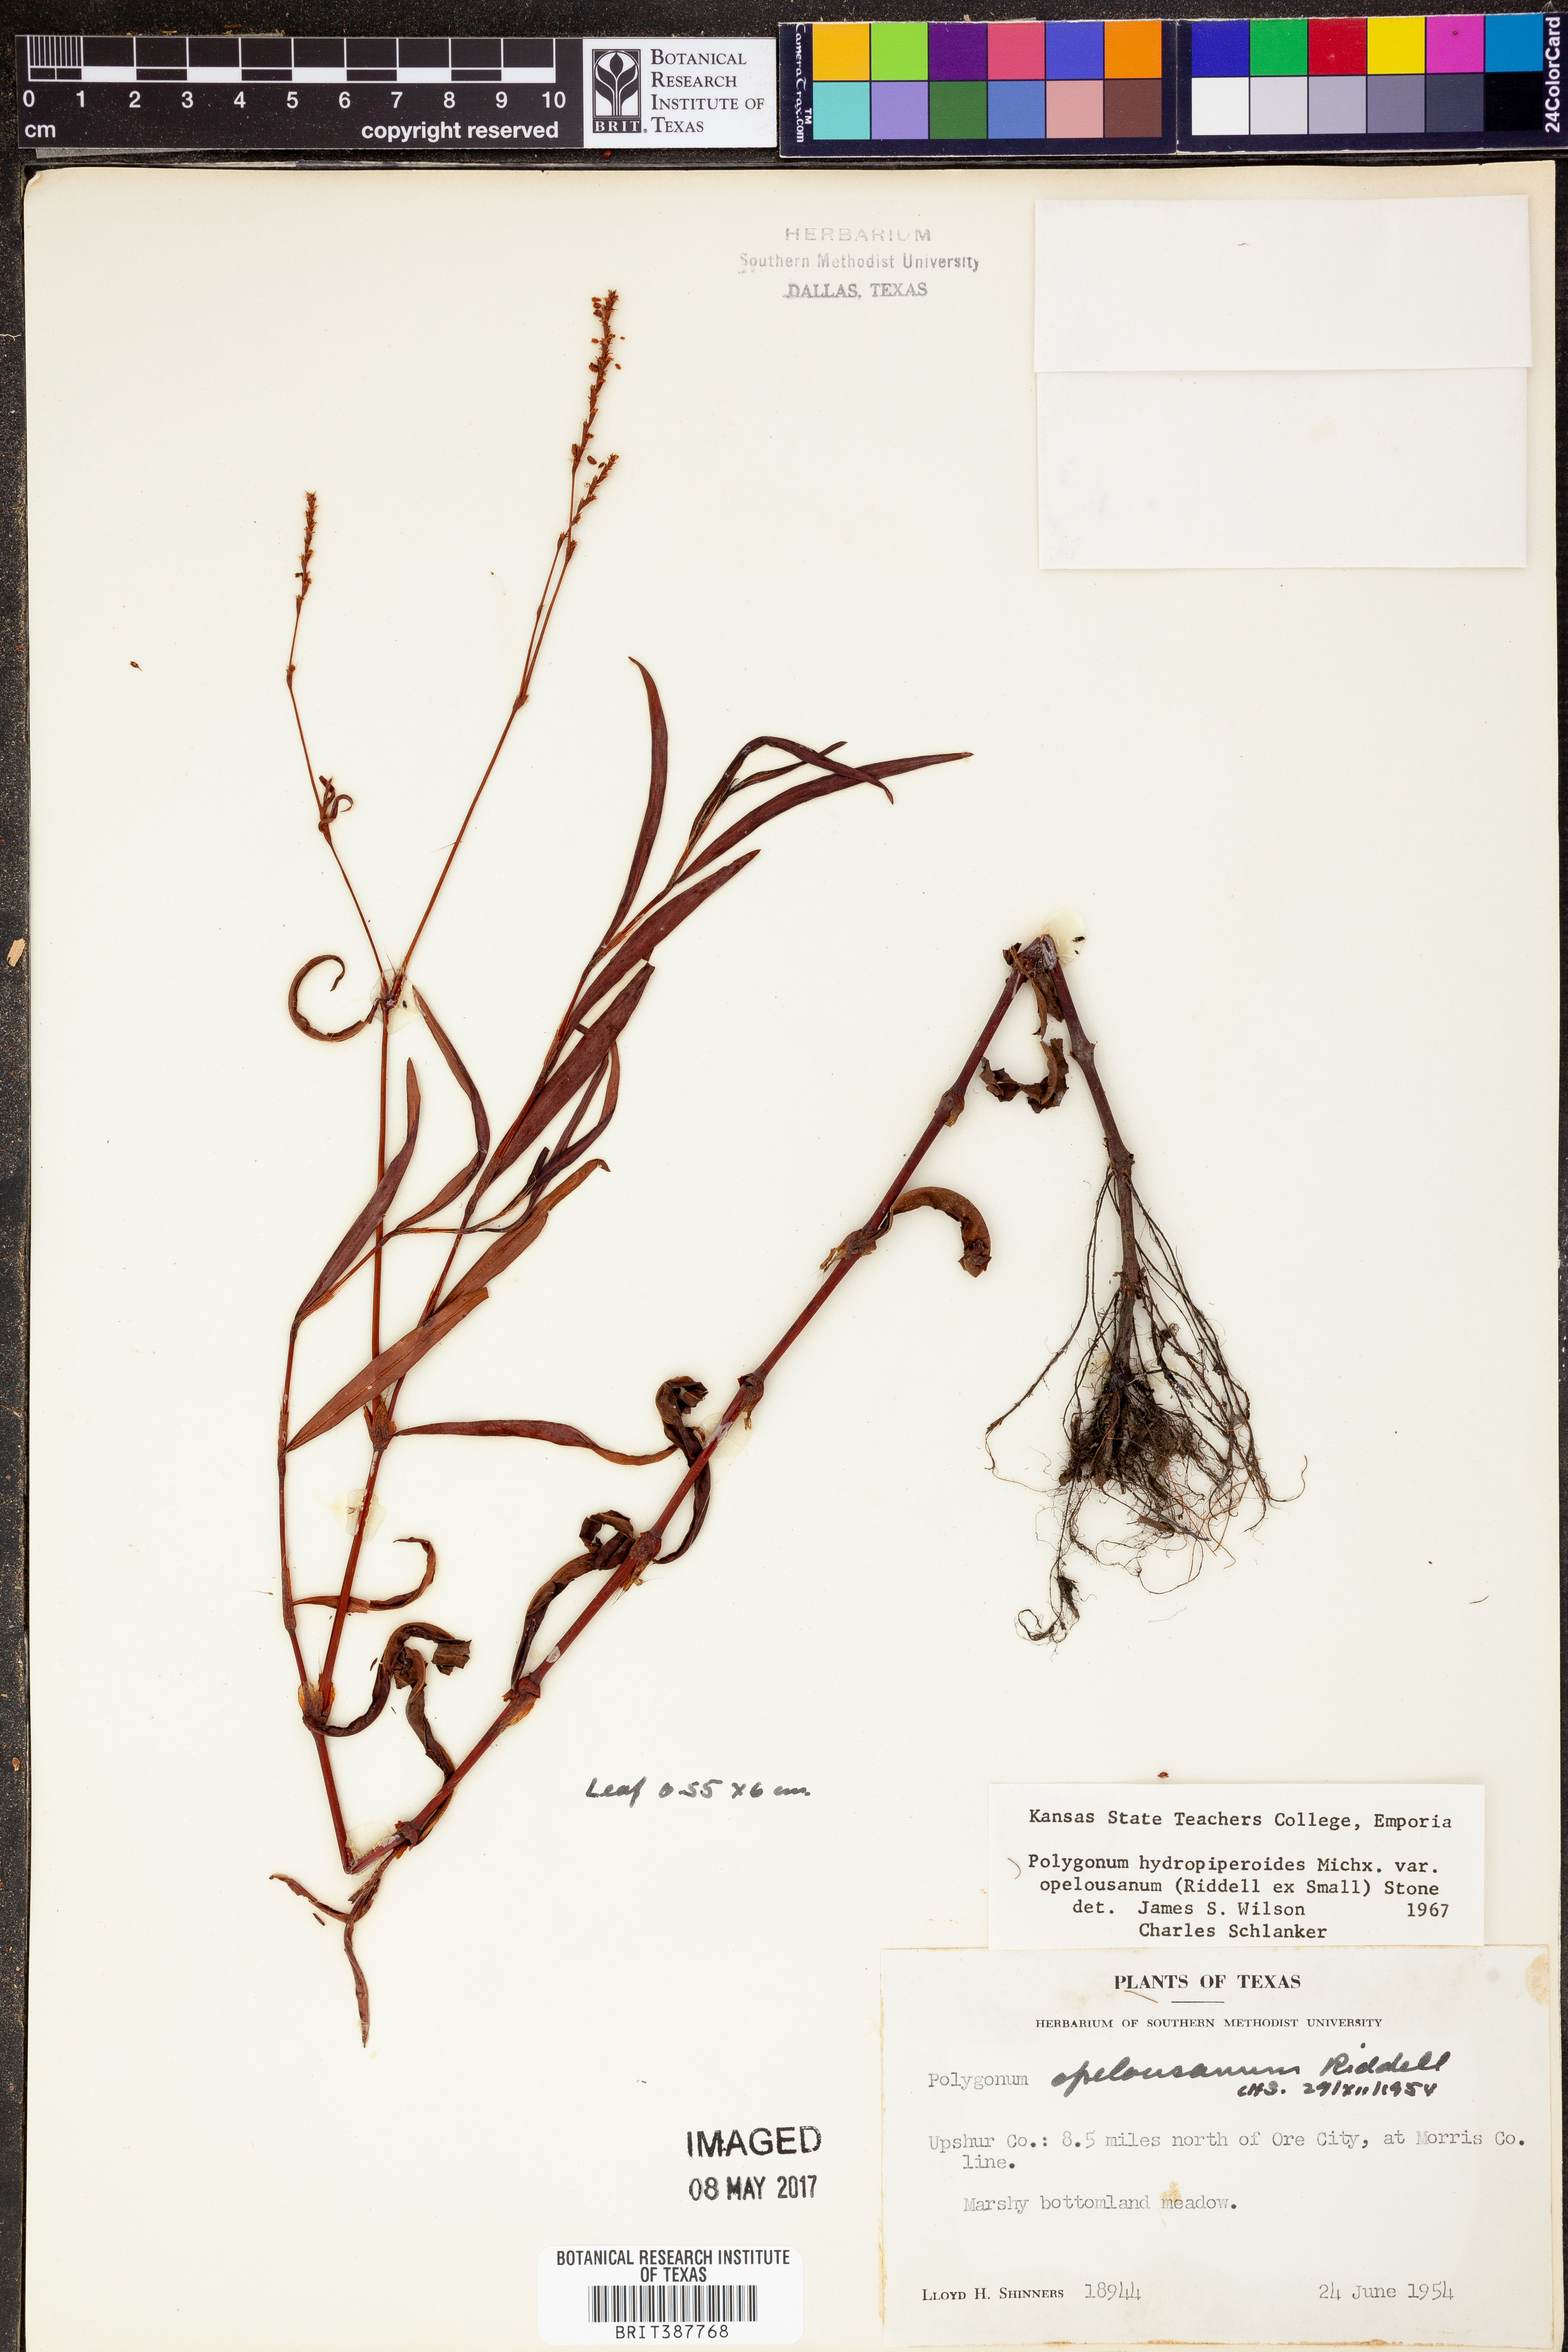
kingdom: Plantae
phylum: Tracheophyta
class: Magnoliopsida
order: Caryophyllales
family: Polygonaceae
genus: Persicaria
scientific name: Persicaria hydropiperoides
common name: Swamp smartweed
